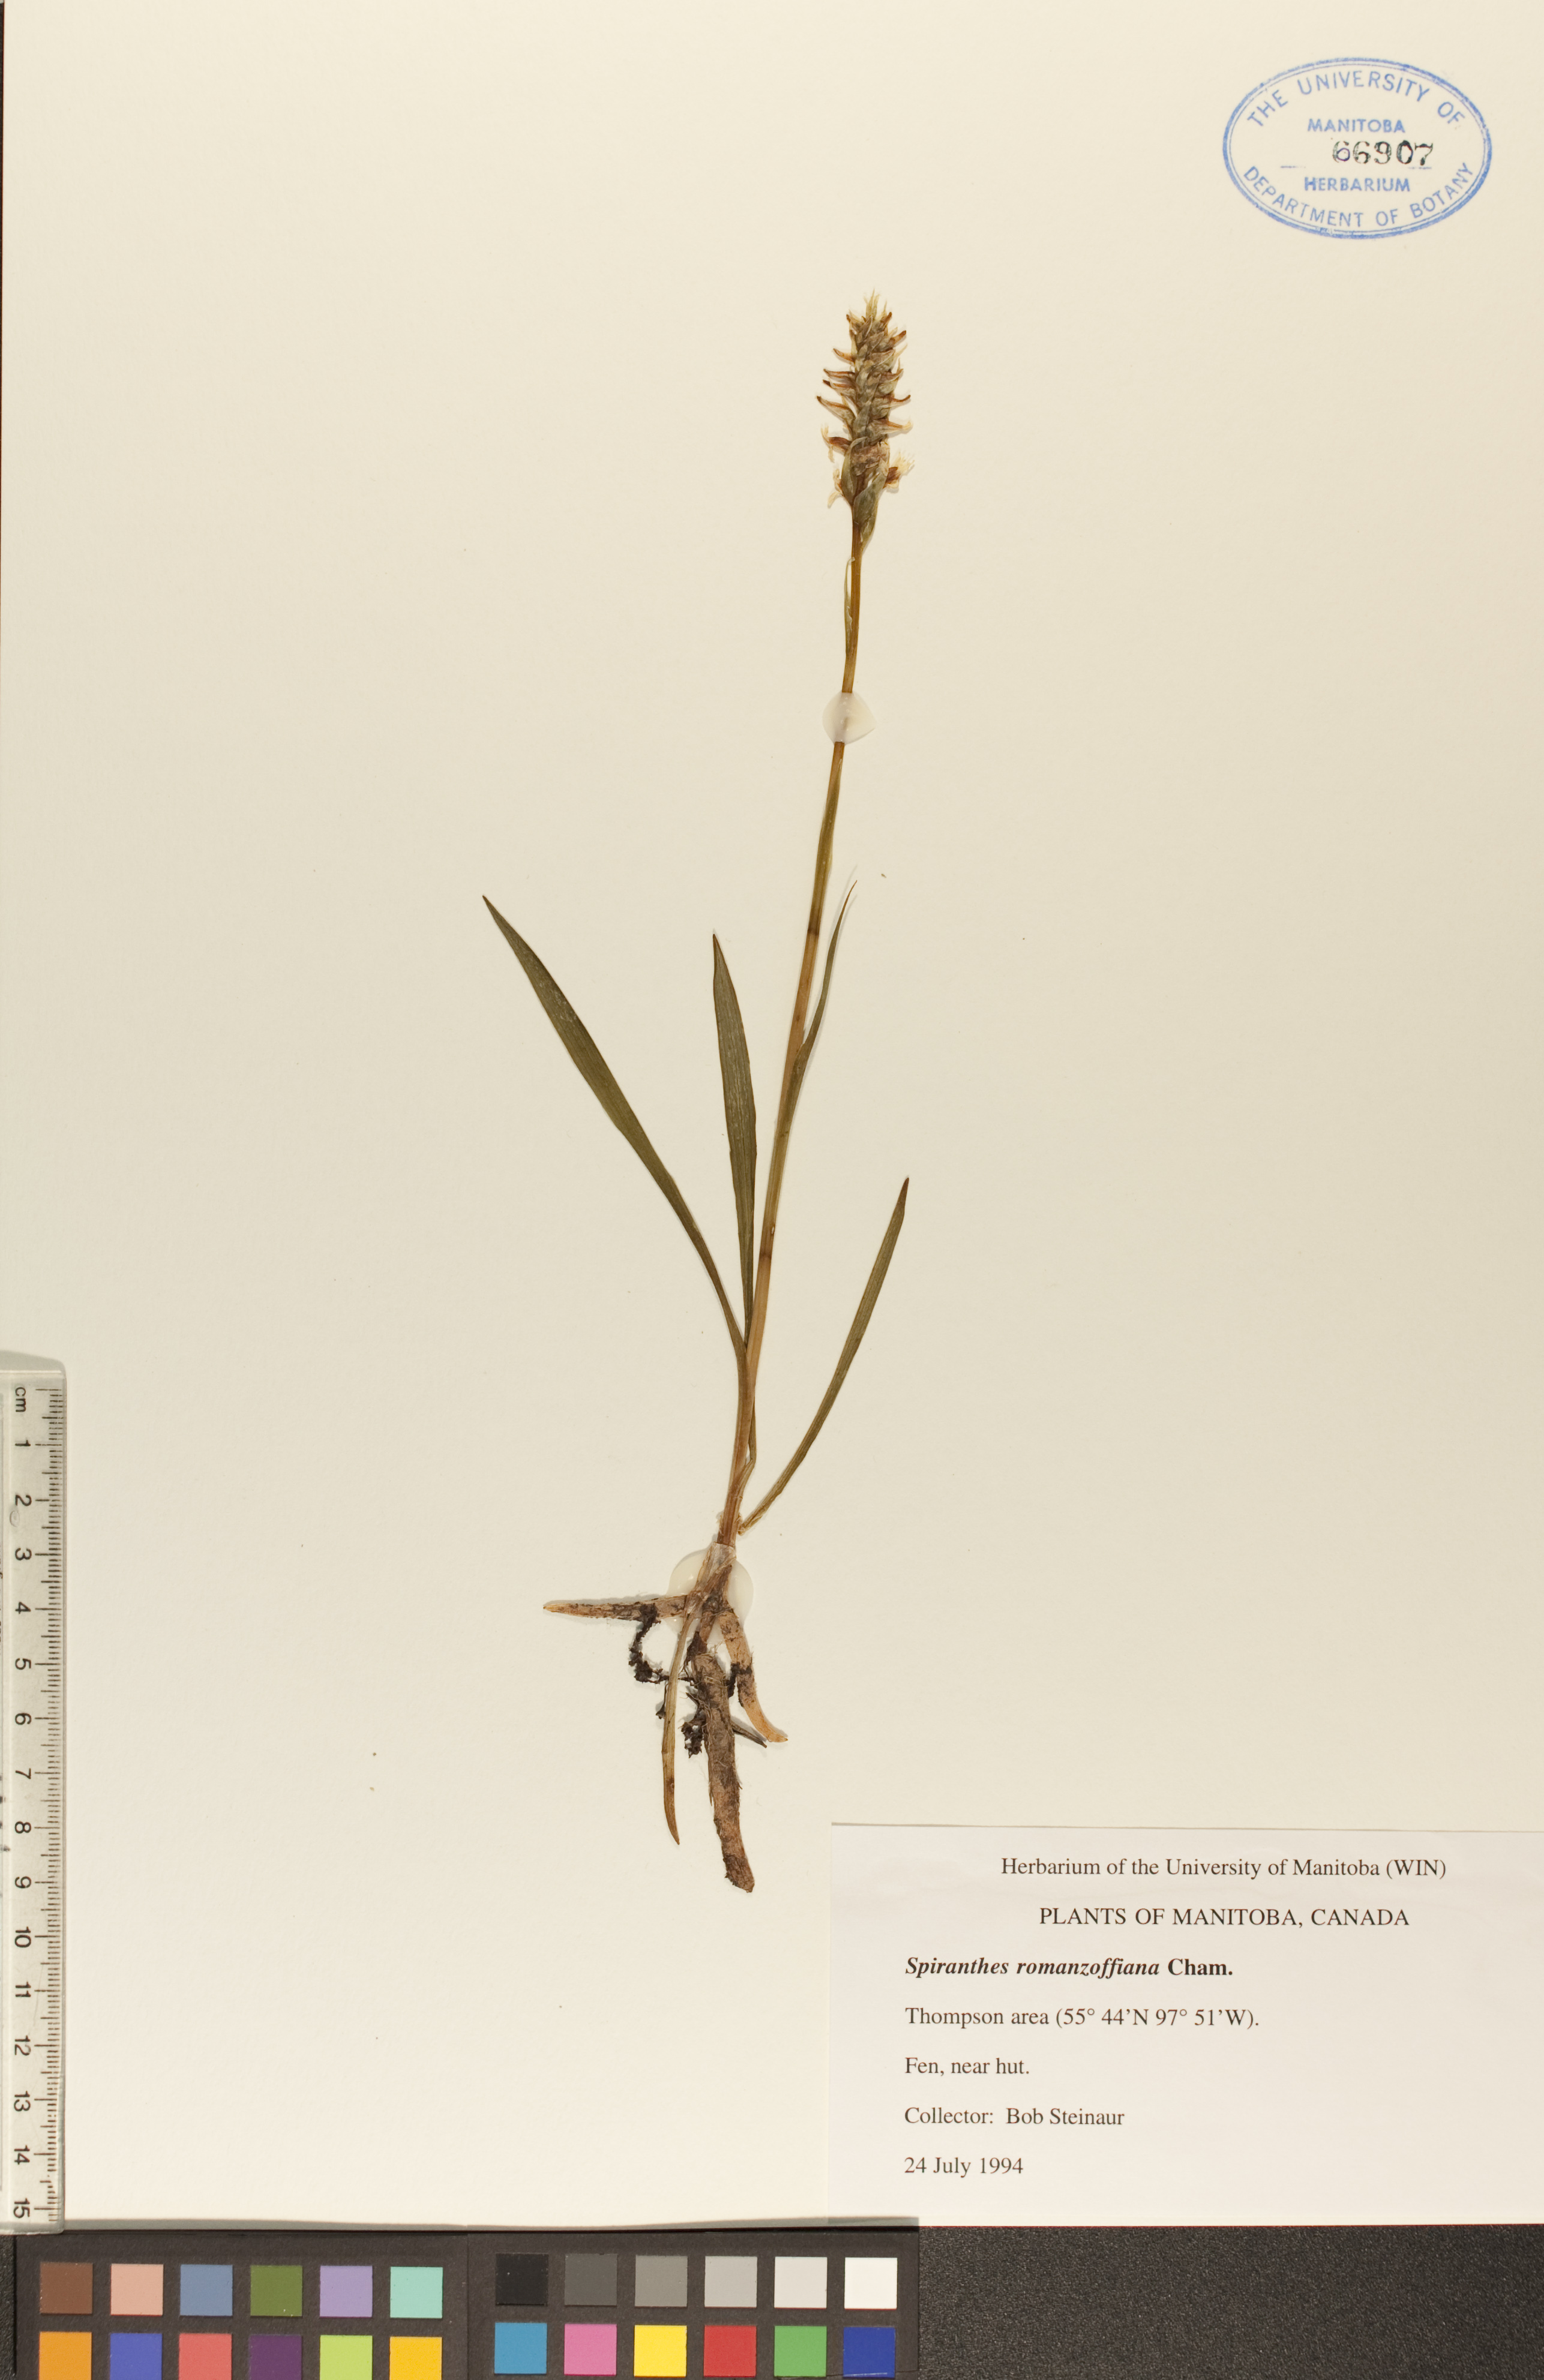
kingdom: Plantae
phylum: Tracheophyta
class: Liliopsida
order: Asparagales
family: Orchidaceae
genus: Spiranthes
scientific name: Spiranthes romanzoffiana
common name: Irish lady's-tresses
